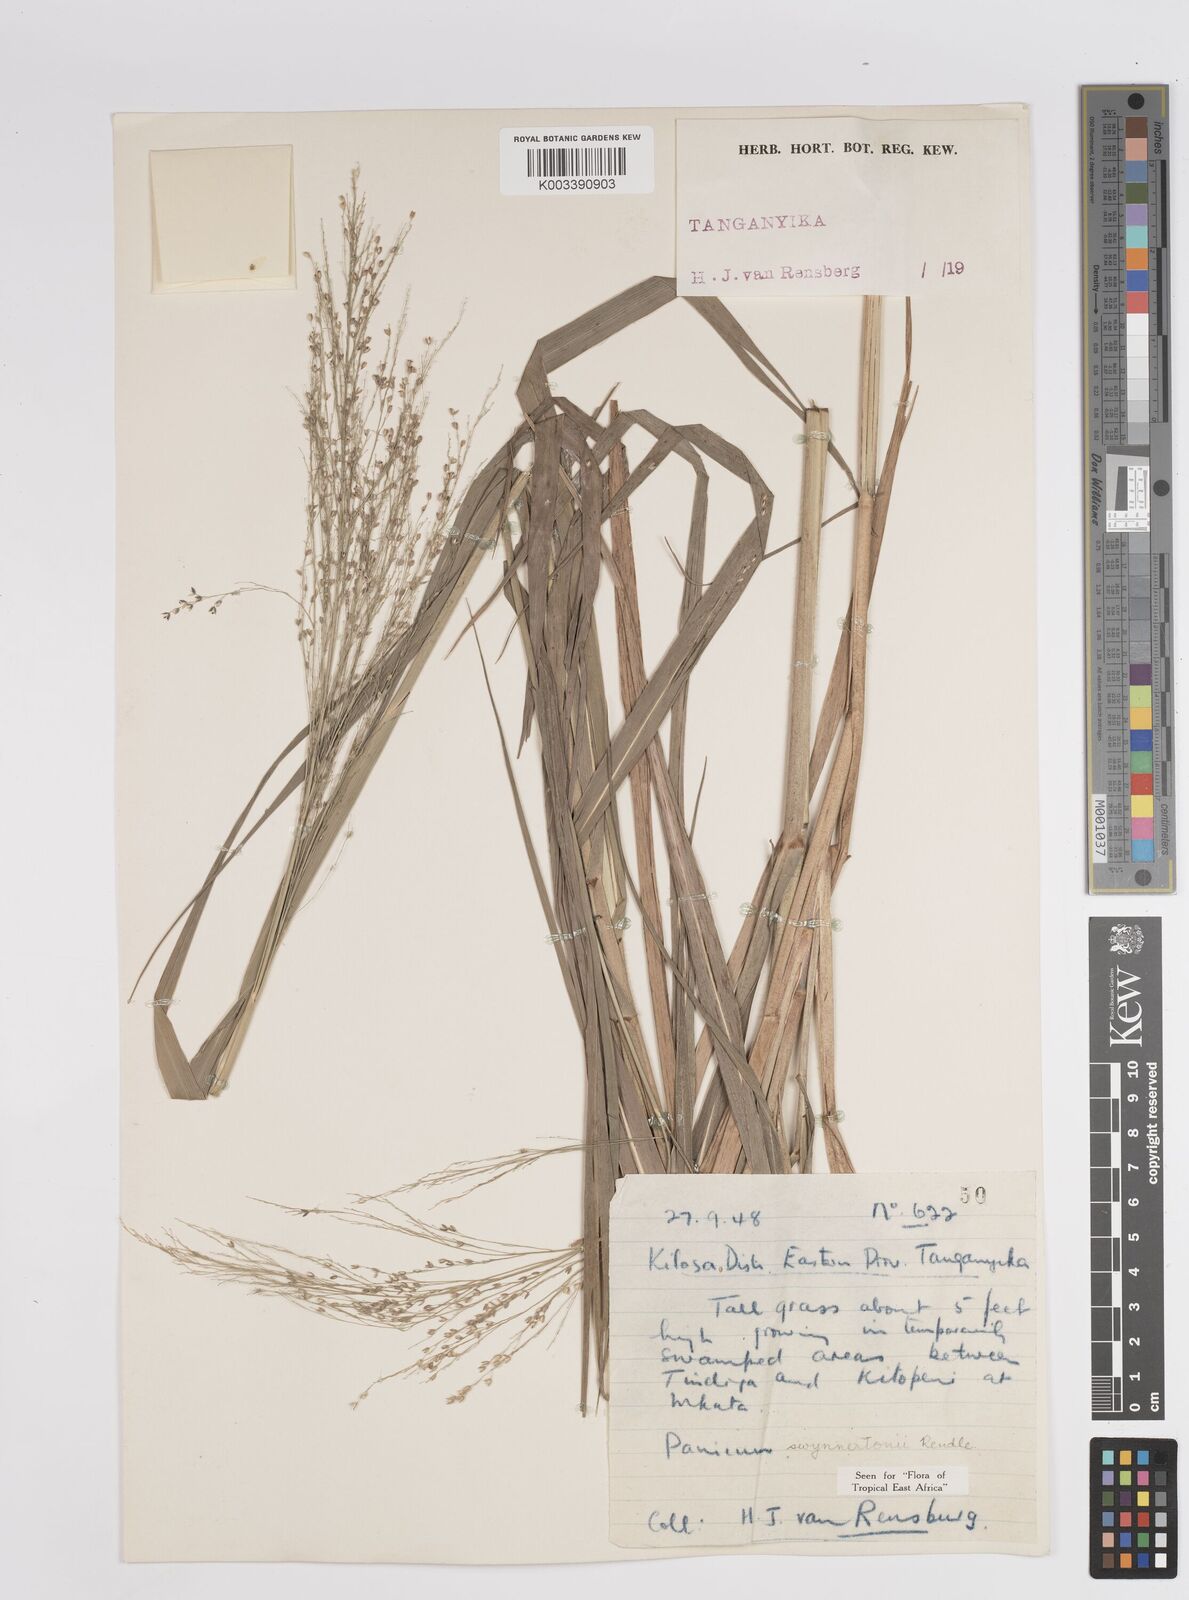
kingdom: Plantae
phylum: Tracheophyta
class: Liliopsida
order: Poales
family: Poaceae
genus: Panicum
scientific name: Panicum merkeri
